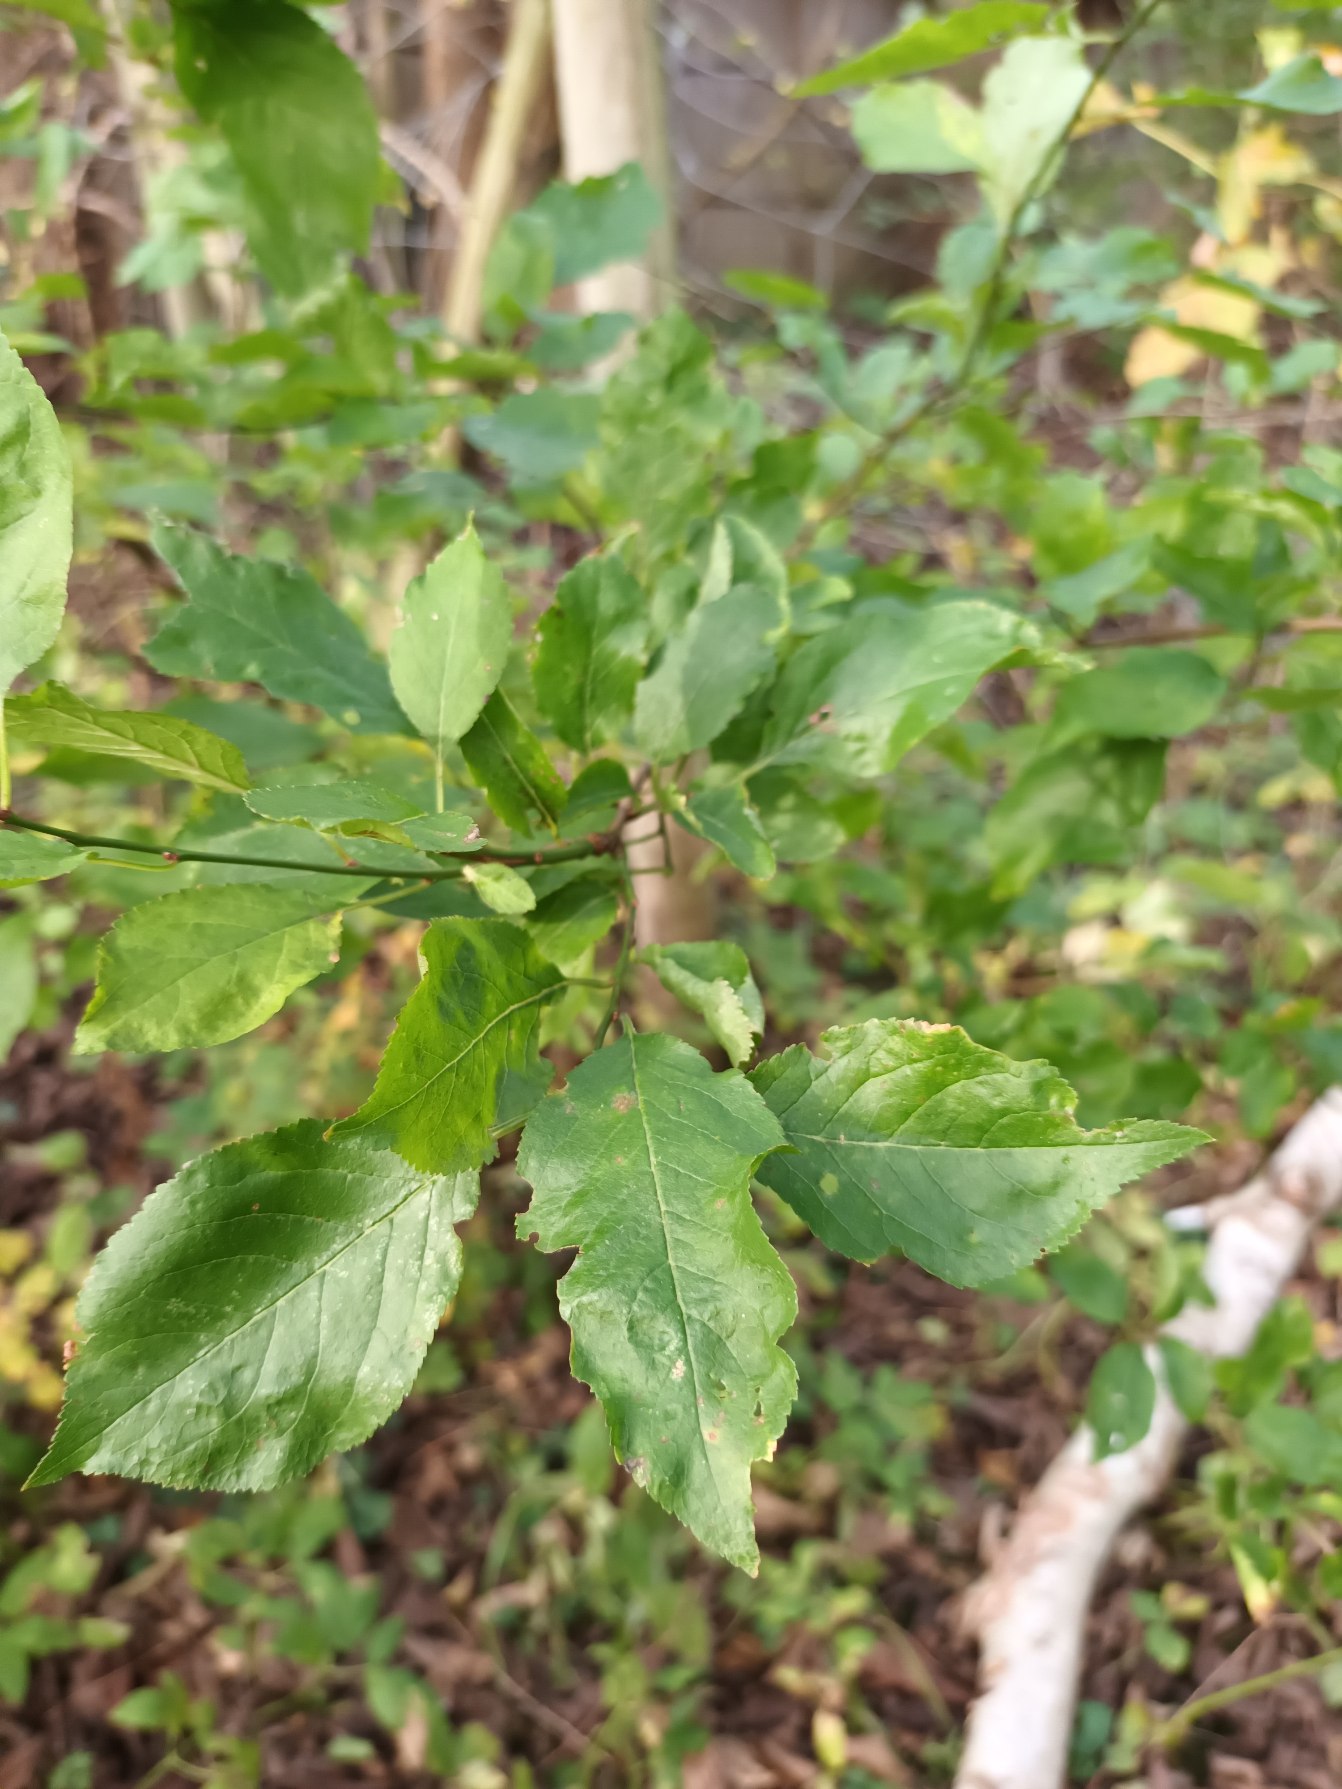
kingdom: Plantae
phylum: Tracheophyta
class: Magnoliopsida
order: Rosales
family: Rosaceae
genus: Prunus
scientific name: Prunus cerasifera
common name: Mirabel
